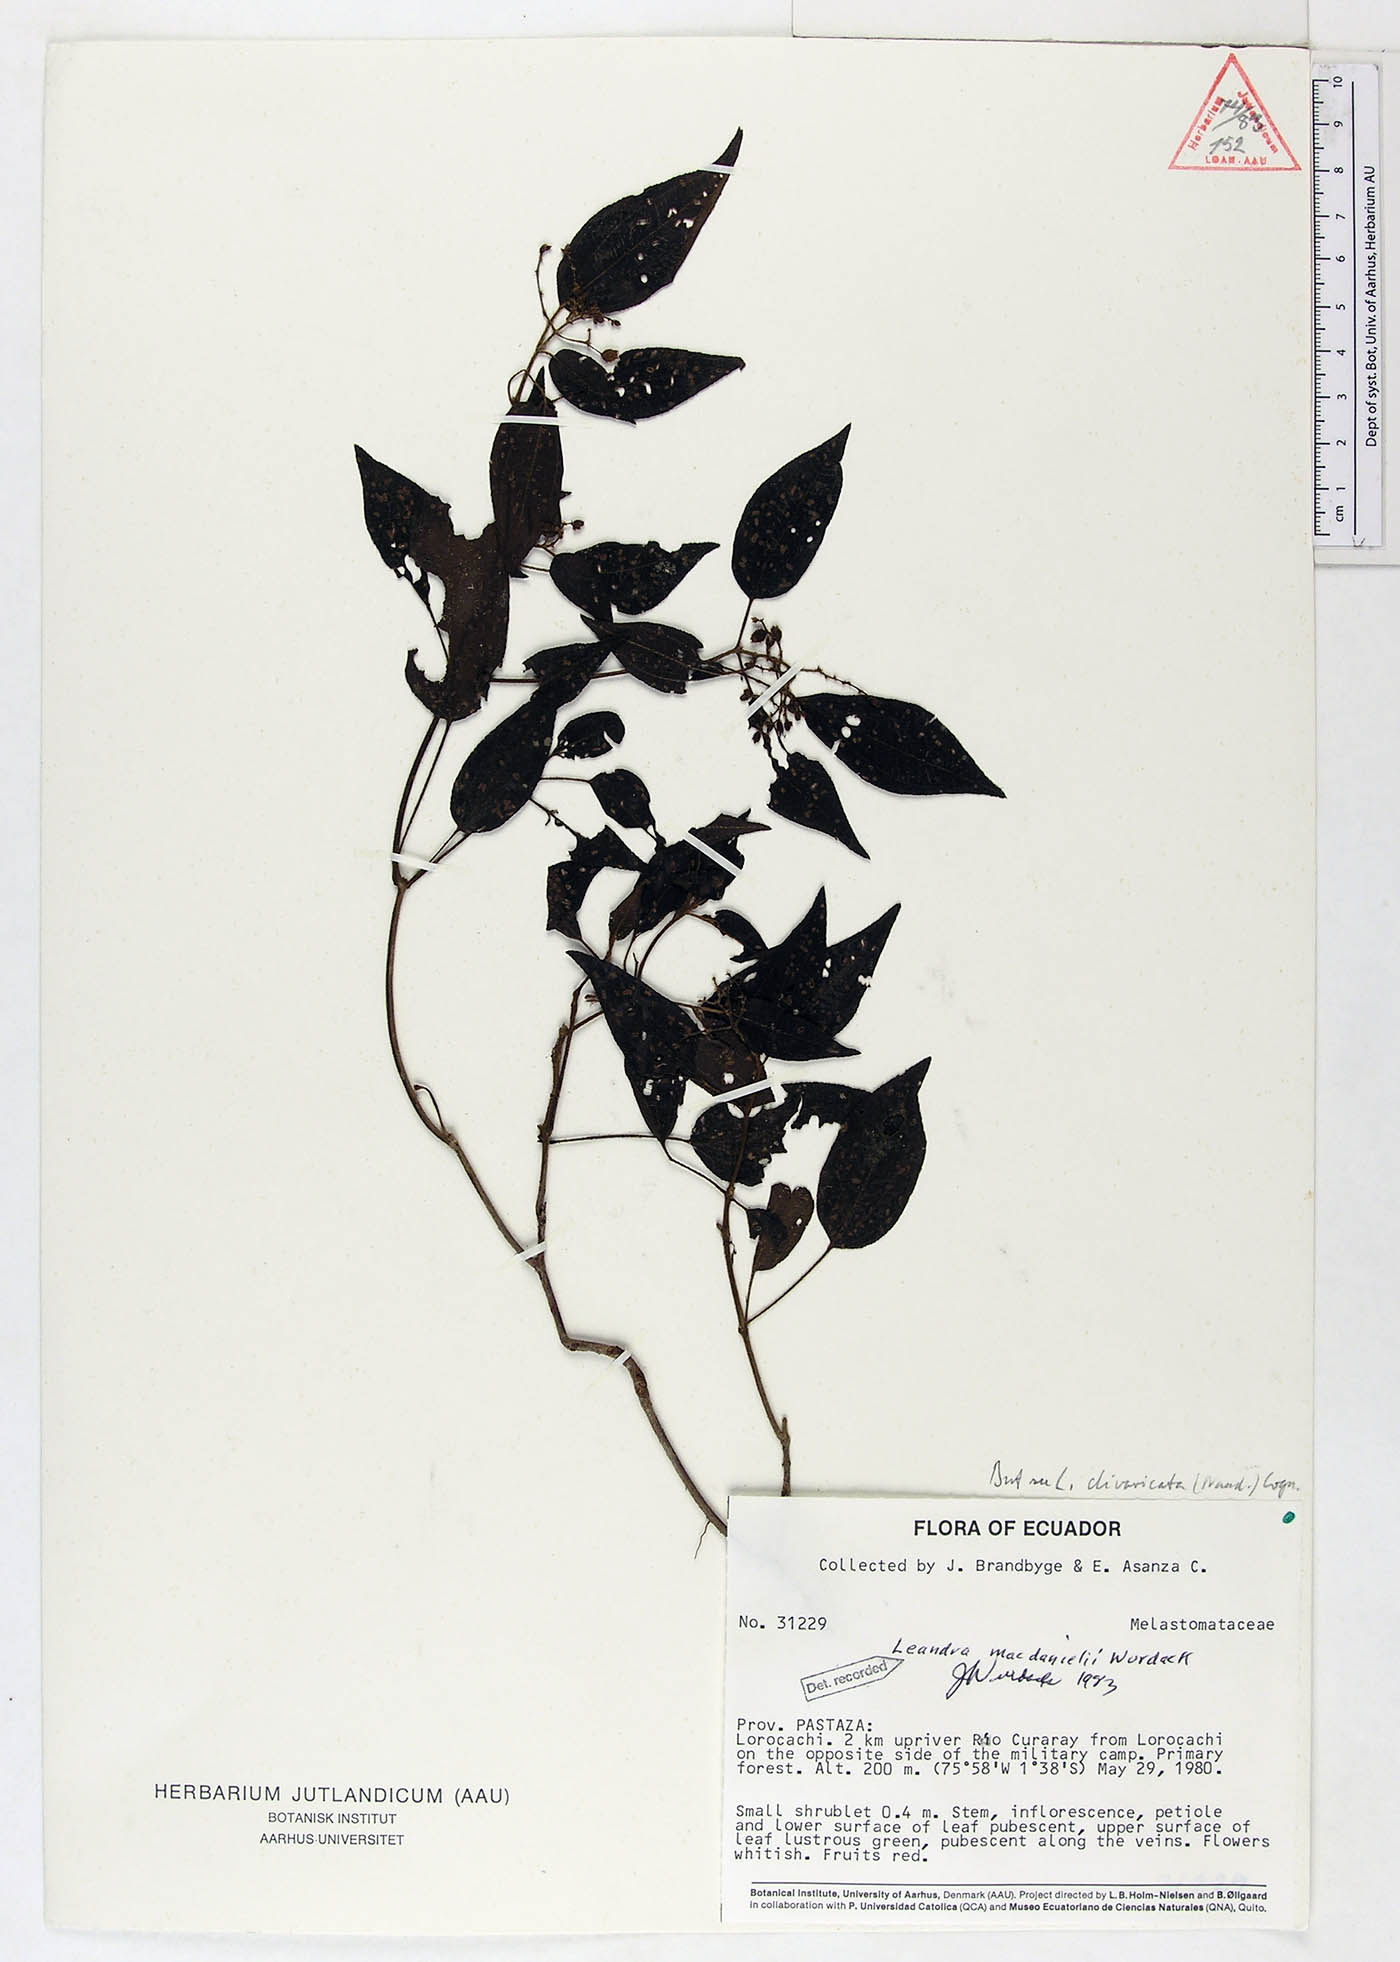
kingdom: Plantae
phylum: Tracheophyta
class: Magnoliopsida
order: Myrtales
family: Melastomataceae
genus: Miconia
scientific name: Miconia secunmacdanielii
